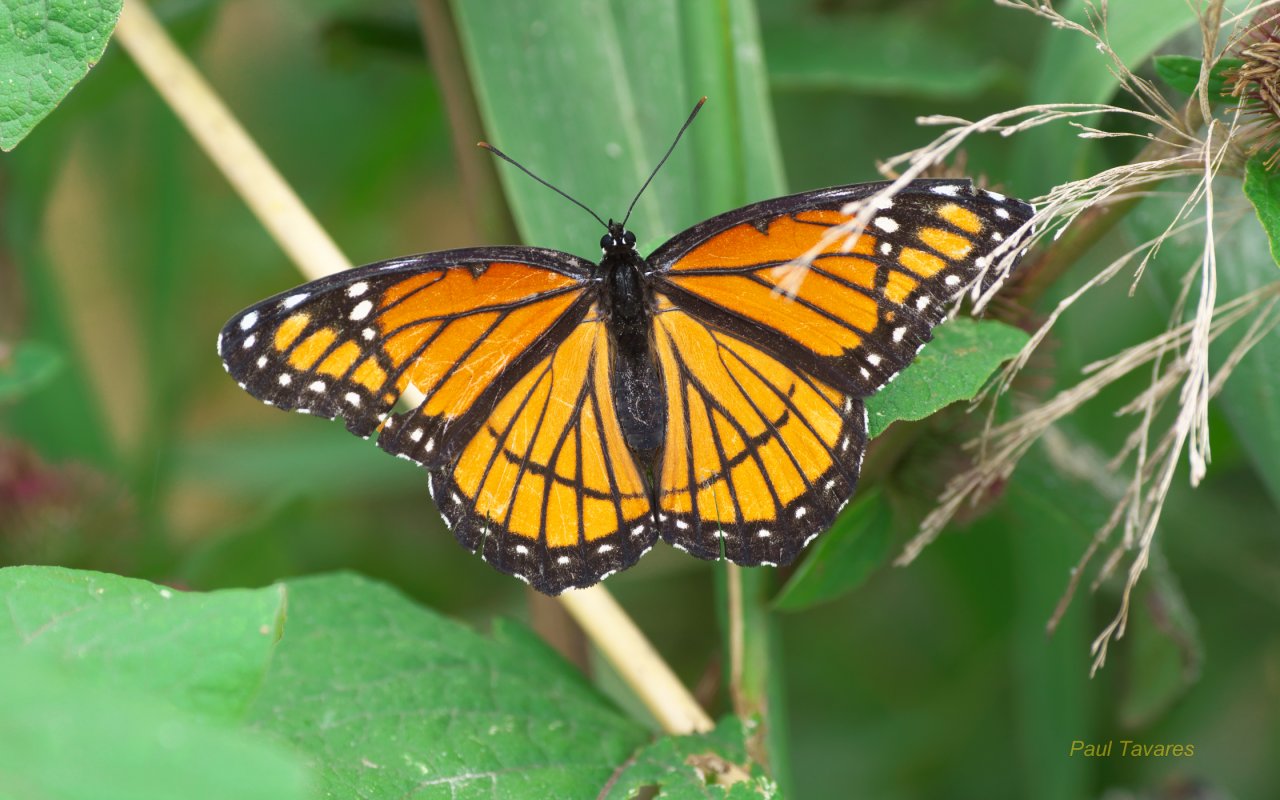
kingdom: Animalia
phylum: Arthropoda
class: Insecta
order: Lepidoptera
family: Nymphalidae
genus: Limenitis
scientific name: Limenitis archippus
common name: Viceroy
